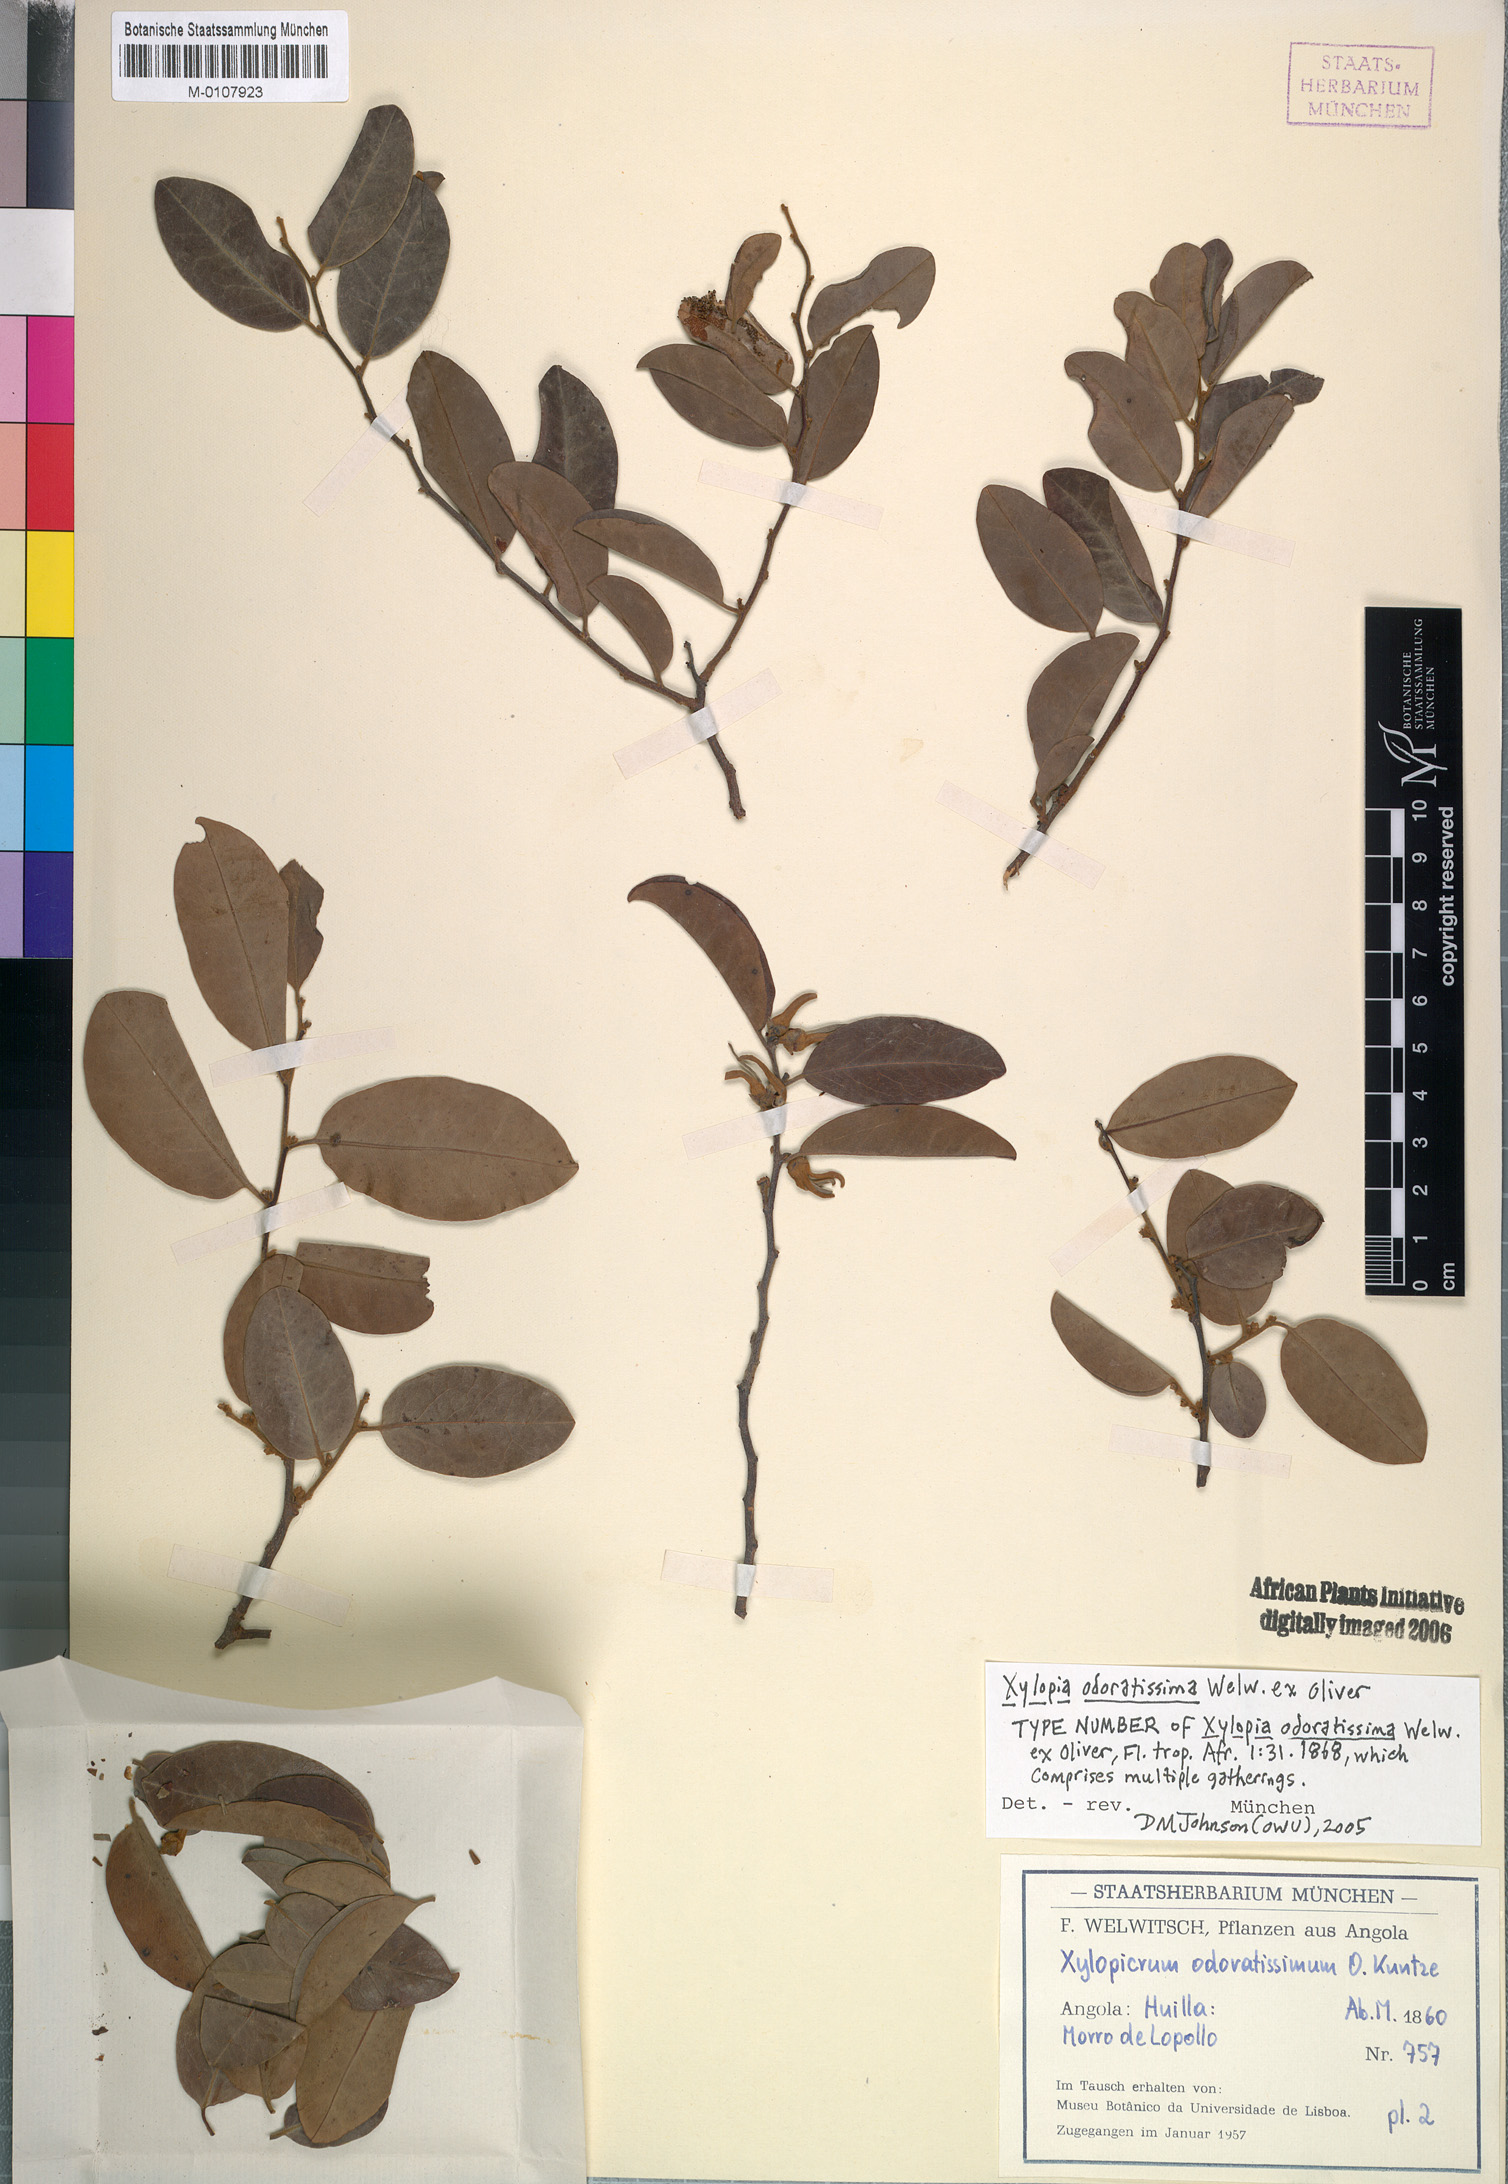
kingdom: Plantae
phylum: Tracheophyta
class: Magnoliopsida
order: Magnoliales
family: Annonaceae
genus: Xylopia
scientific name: Xylopia odoratissima
